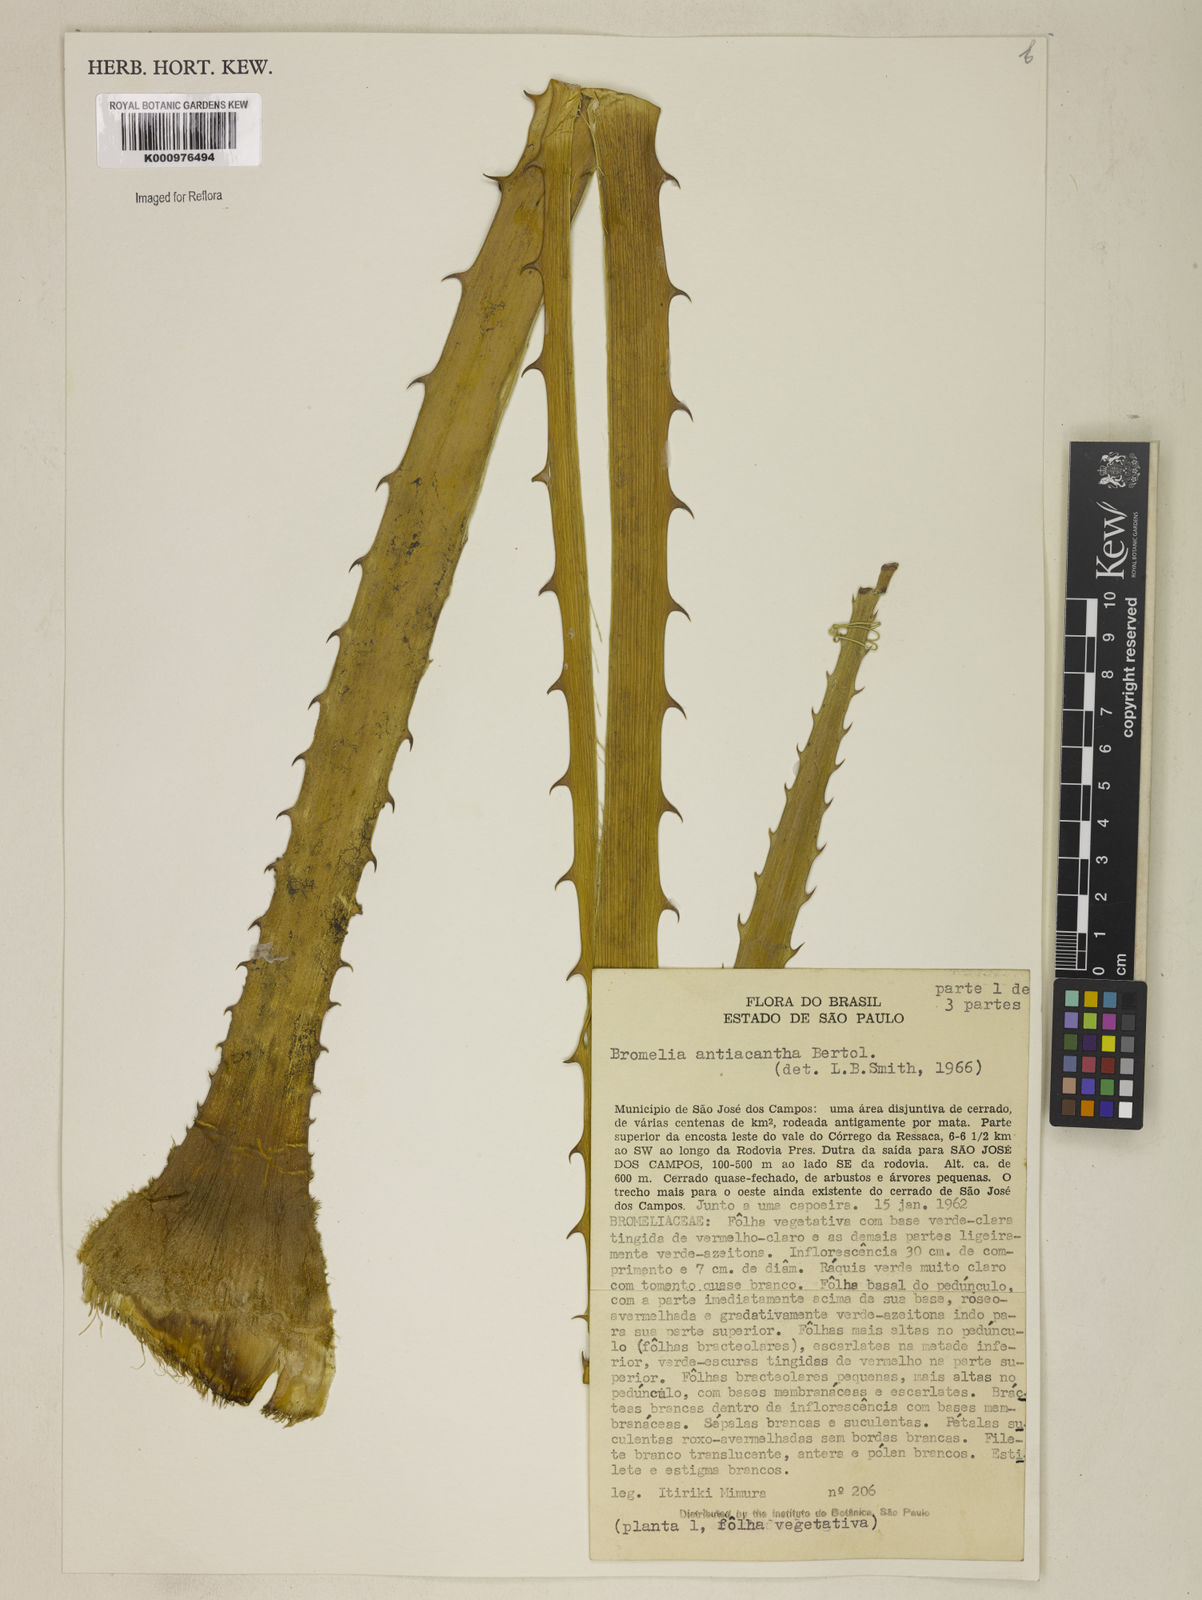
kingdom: Plantae
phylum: Tracheophyta
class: Liliopsida
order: Poales
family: Bromeliaceae
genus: Bromelia
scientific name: Bromelia antiacantha
